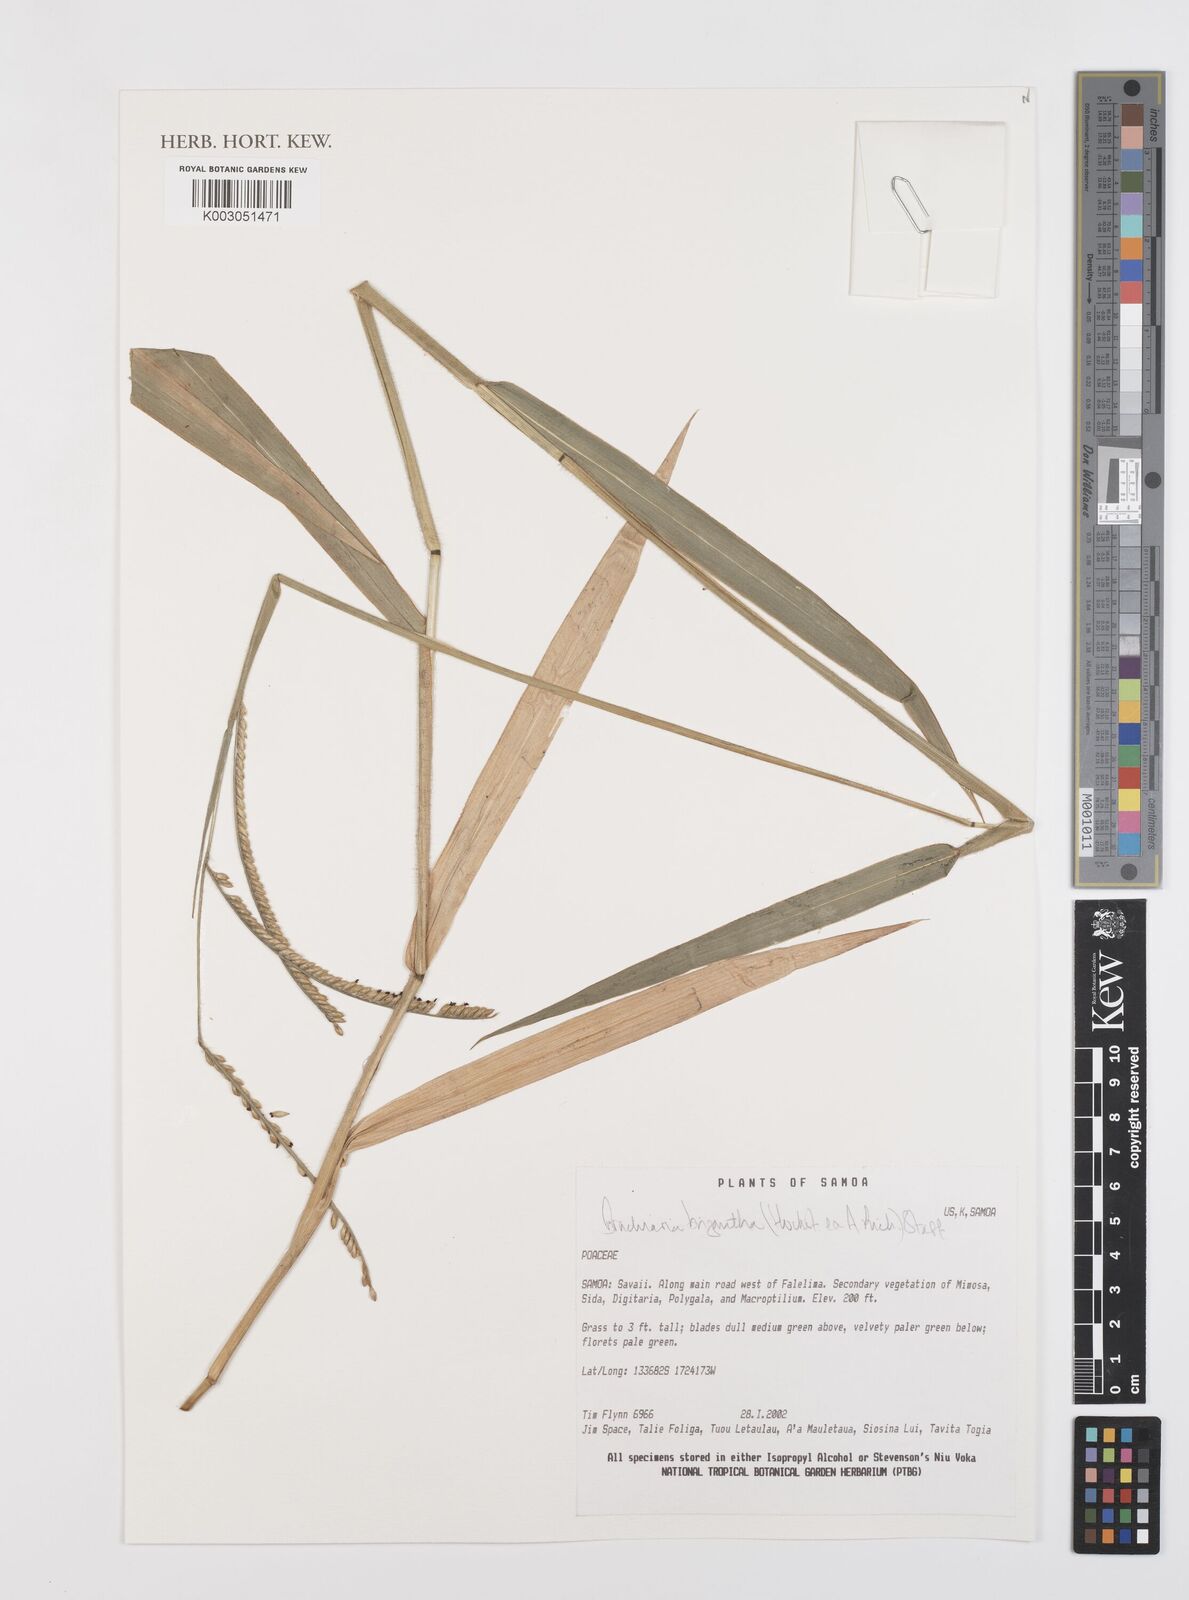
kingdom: Plantae
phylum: Tracheophyta
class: Liliopsida
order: Poales
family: Poaceae
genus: Urochloa
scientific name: Urochloa brizantha
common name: Palisade signalgrass
